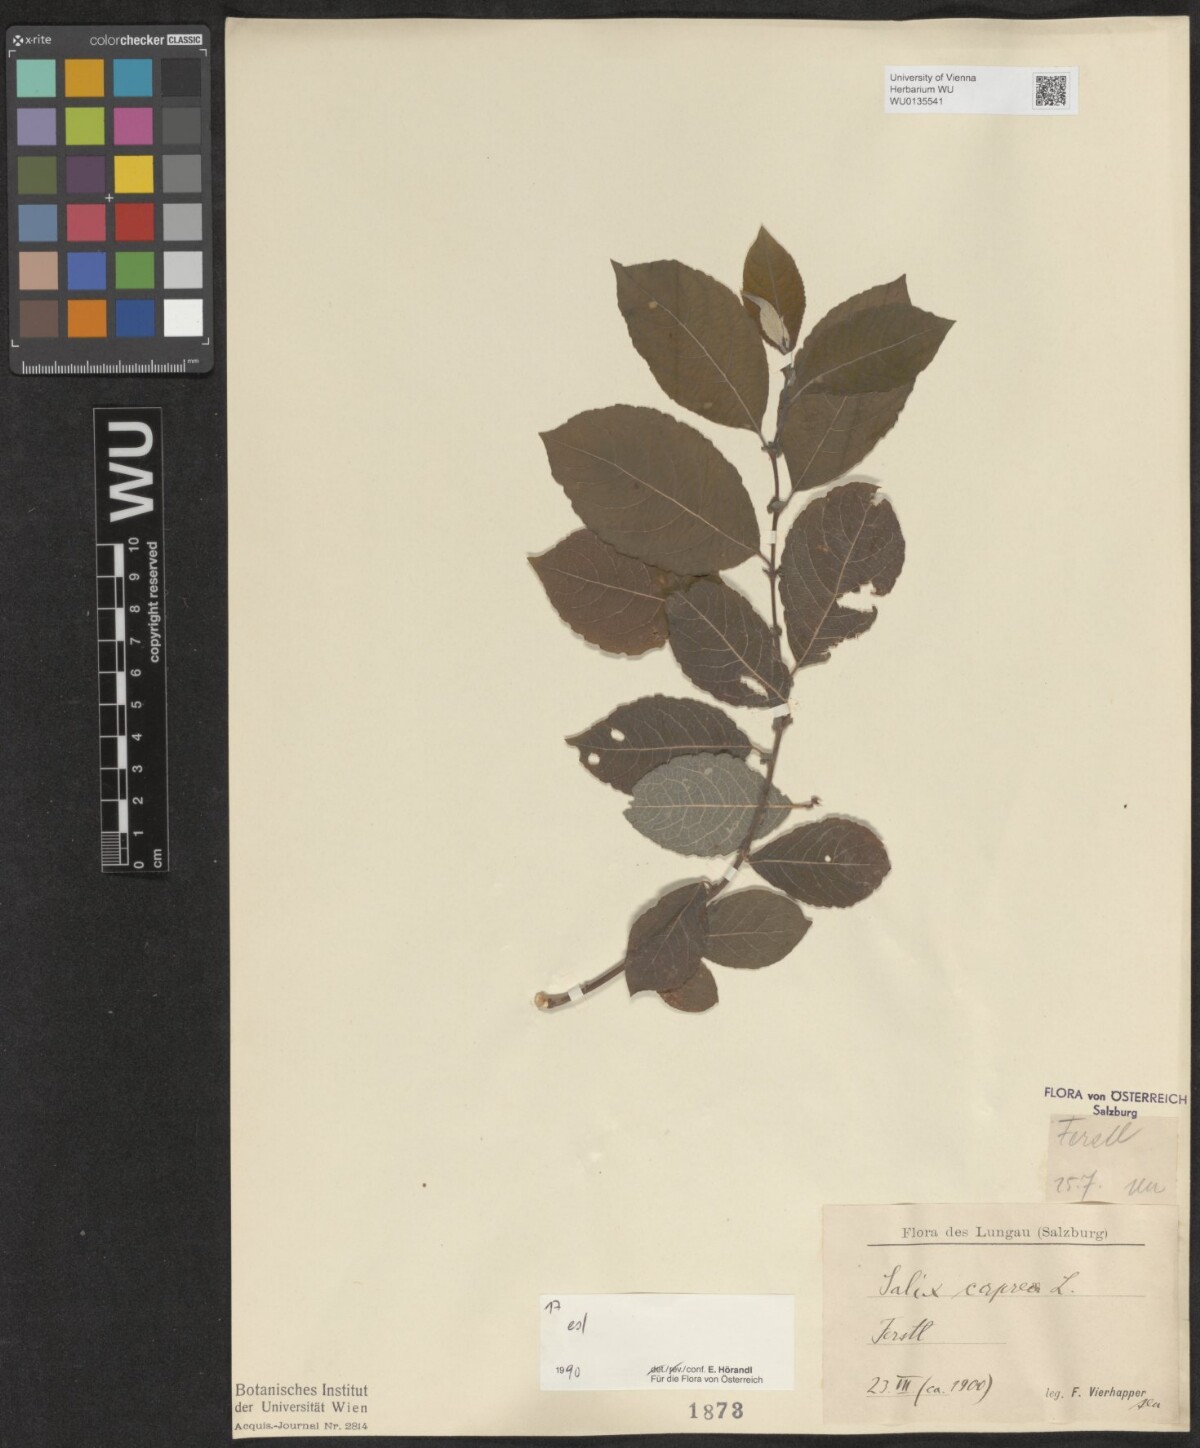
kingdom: Plantae
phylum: Tracheophyta
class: Magnoliopsida
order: Malpighiales
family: Salicaceae
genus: Salix
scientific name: Salix caprea
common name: Goat willow
